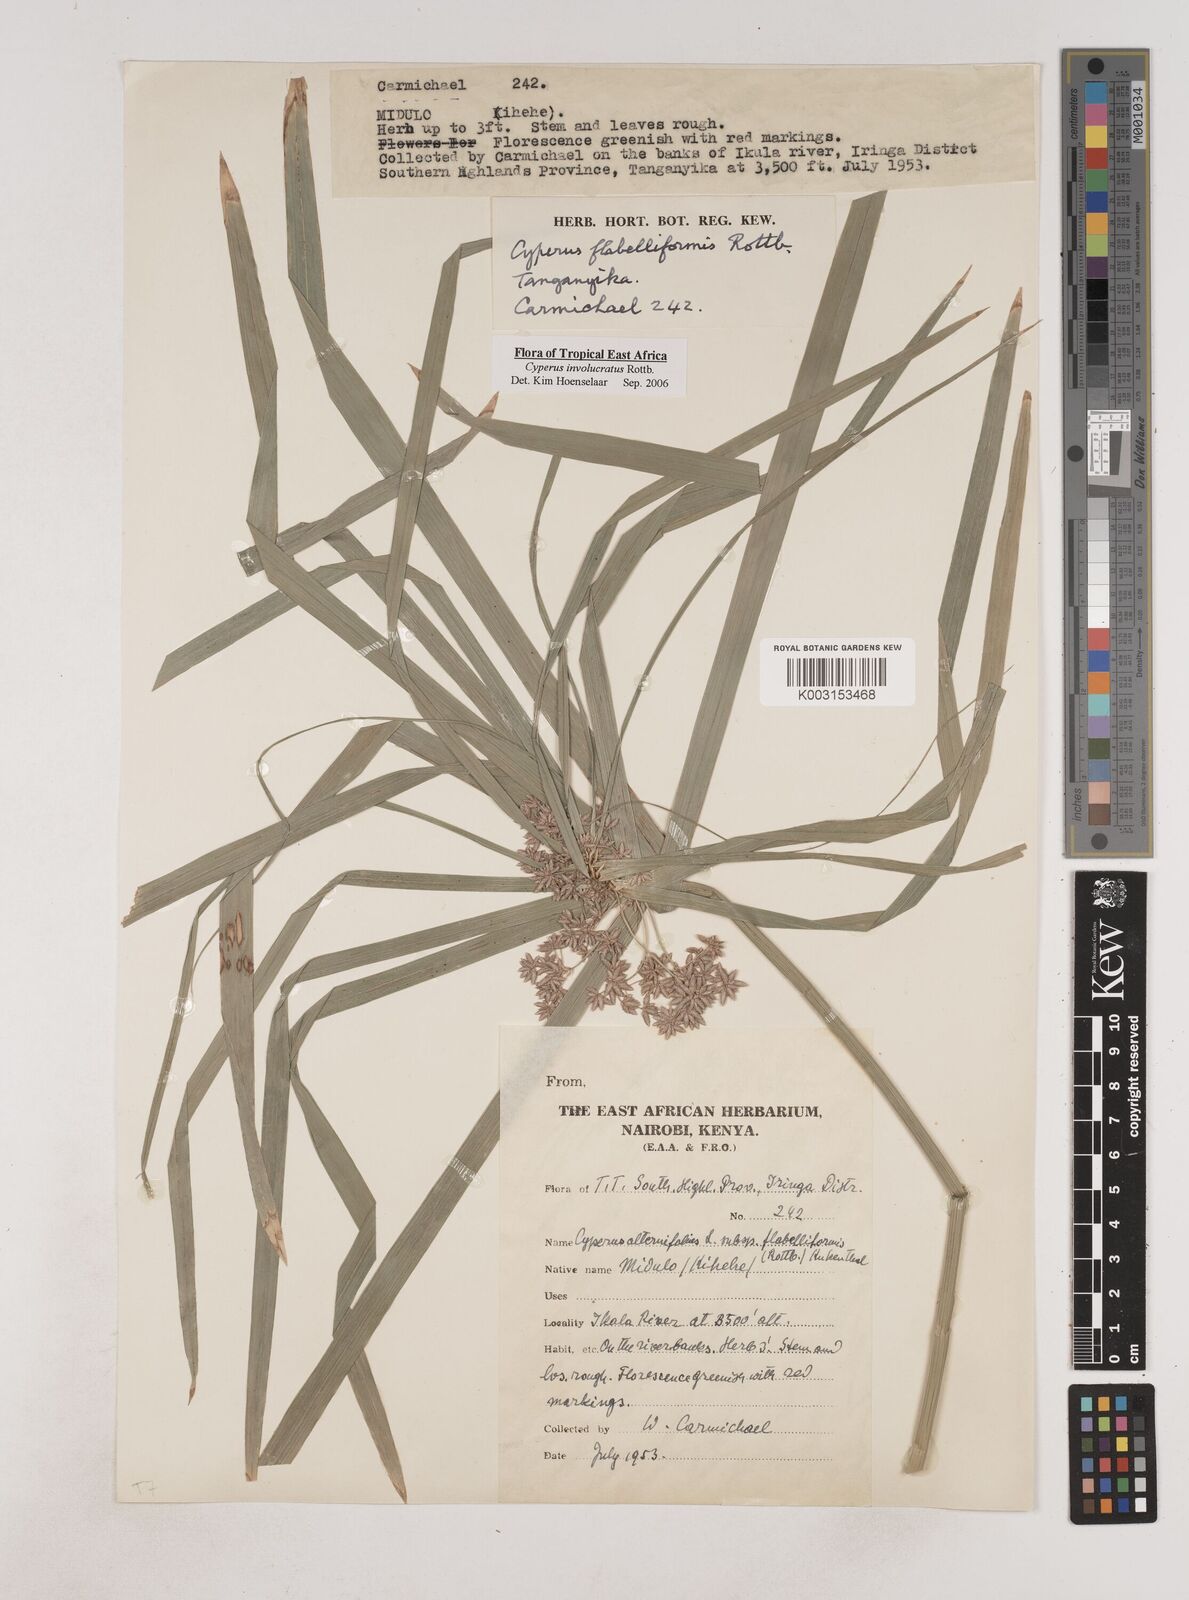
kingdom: Plantae
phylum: Tracheophyta
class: Liliopsida
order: Poales
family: Cyperaceae
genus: Cyperus
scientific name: Cyperus alternifolius
